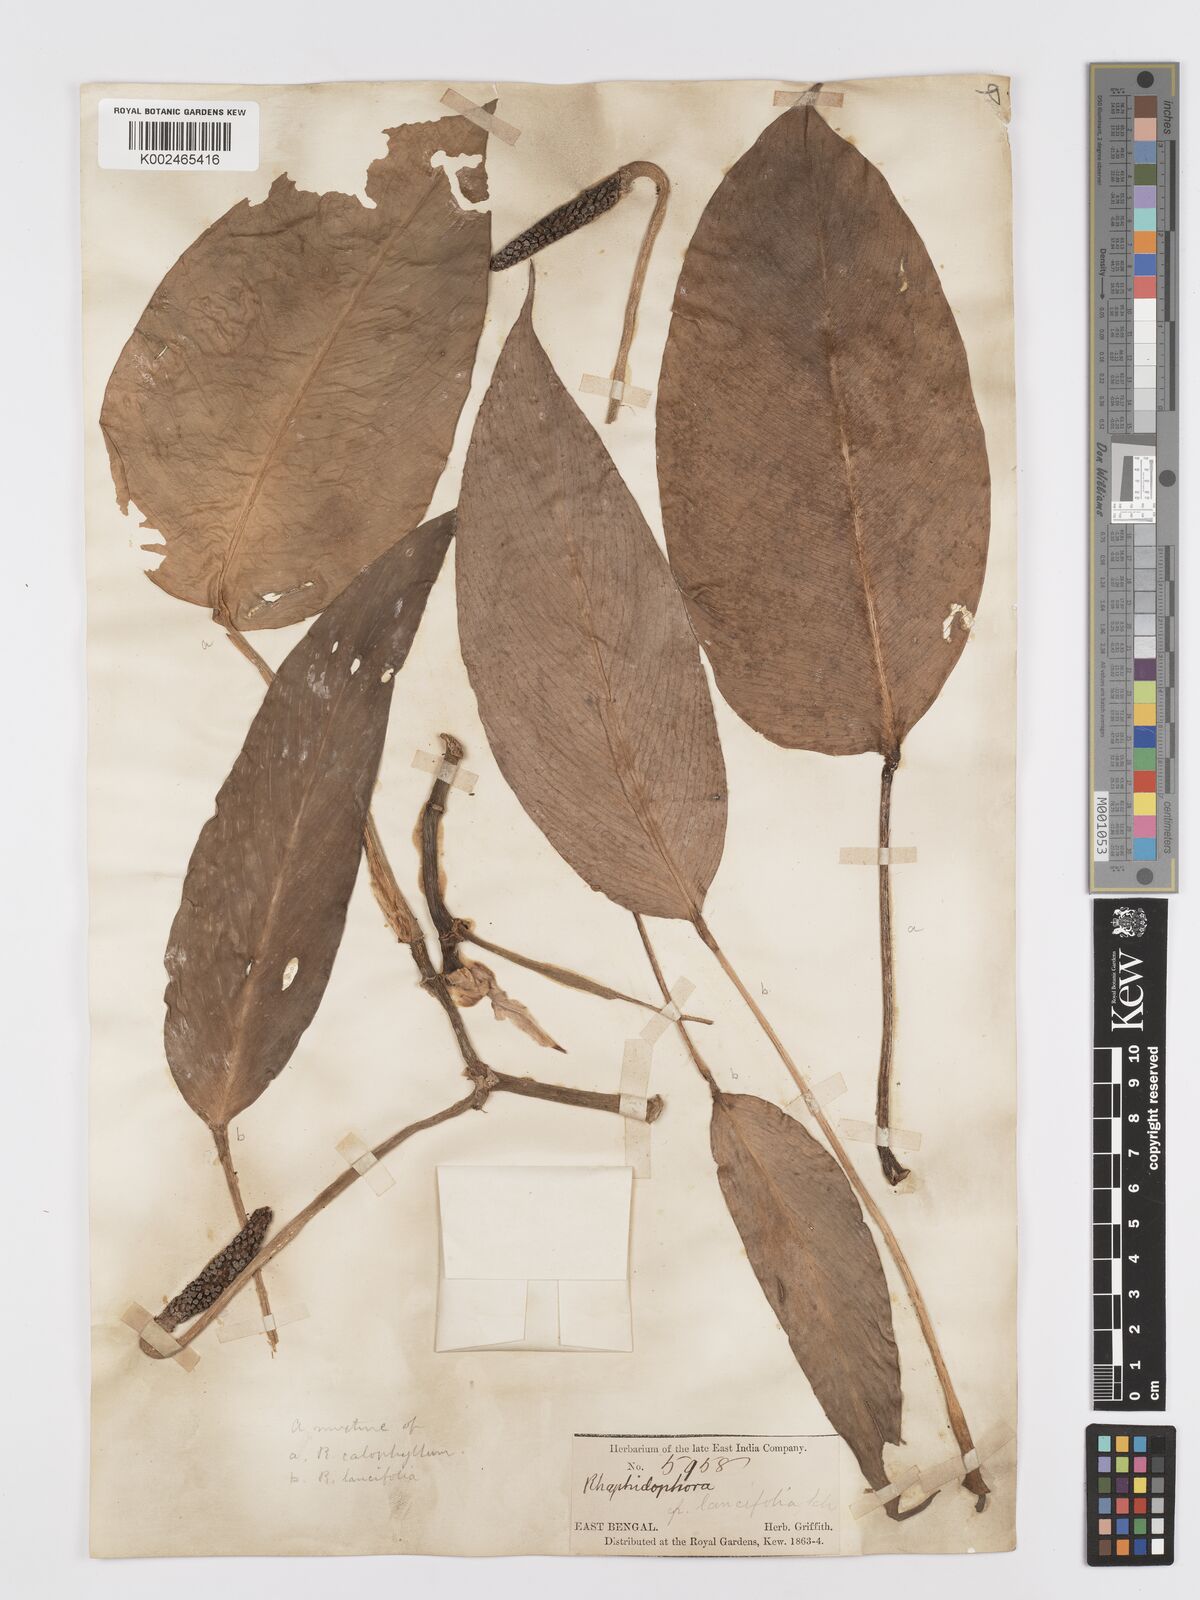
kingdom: Plantae
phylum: Tracheophyta
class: Liliopsida
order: Alismatales
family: Araceae
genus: Rhaphidophora
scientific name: Rhaphidophora peepla
